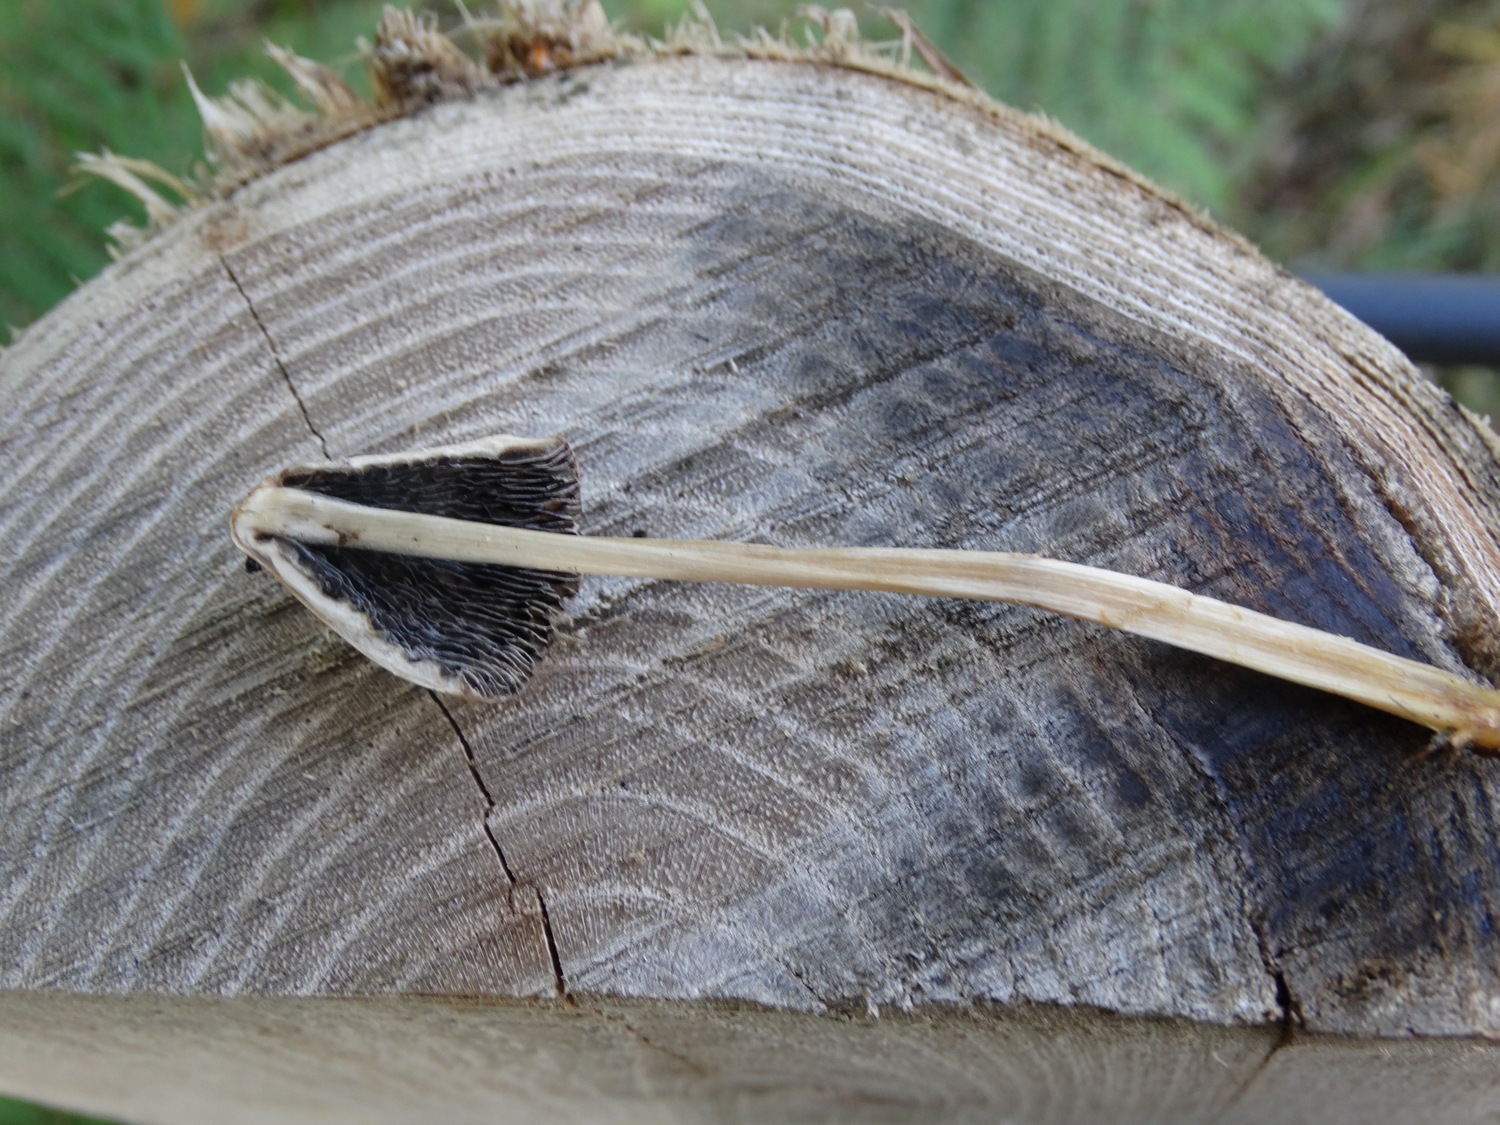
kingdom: Fungi
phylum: Basidiomycota
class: Agaricomycetes
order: Agaricales
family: Bolbitiaceae
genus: Panaeolus
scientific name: Panaeolus semiovatus
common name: ring-glanshat
